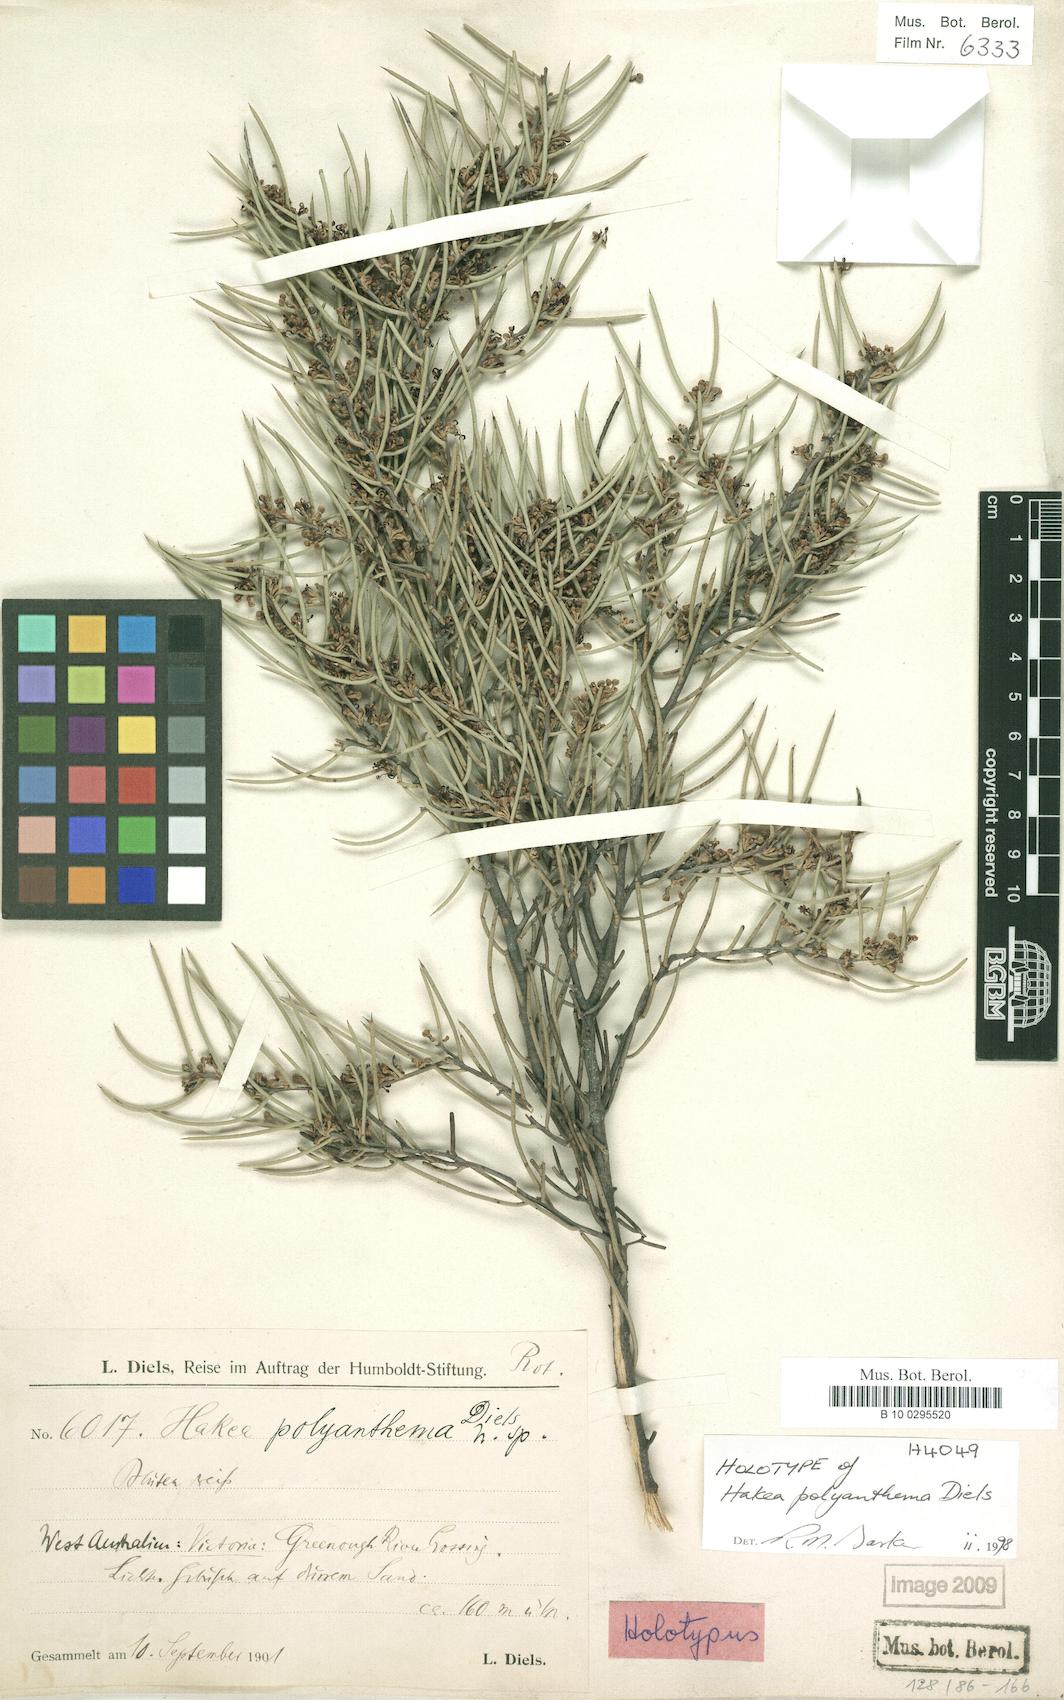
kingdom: Plantae
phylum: Tracheophyta
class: Magnoliopsida
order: Proteales
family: Proteaceae
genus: Hakea
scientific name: Hakea polyanthema
